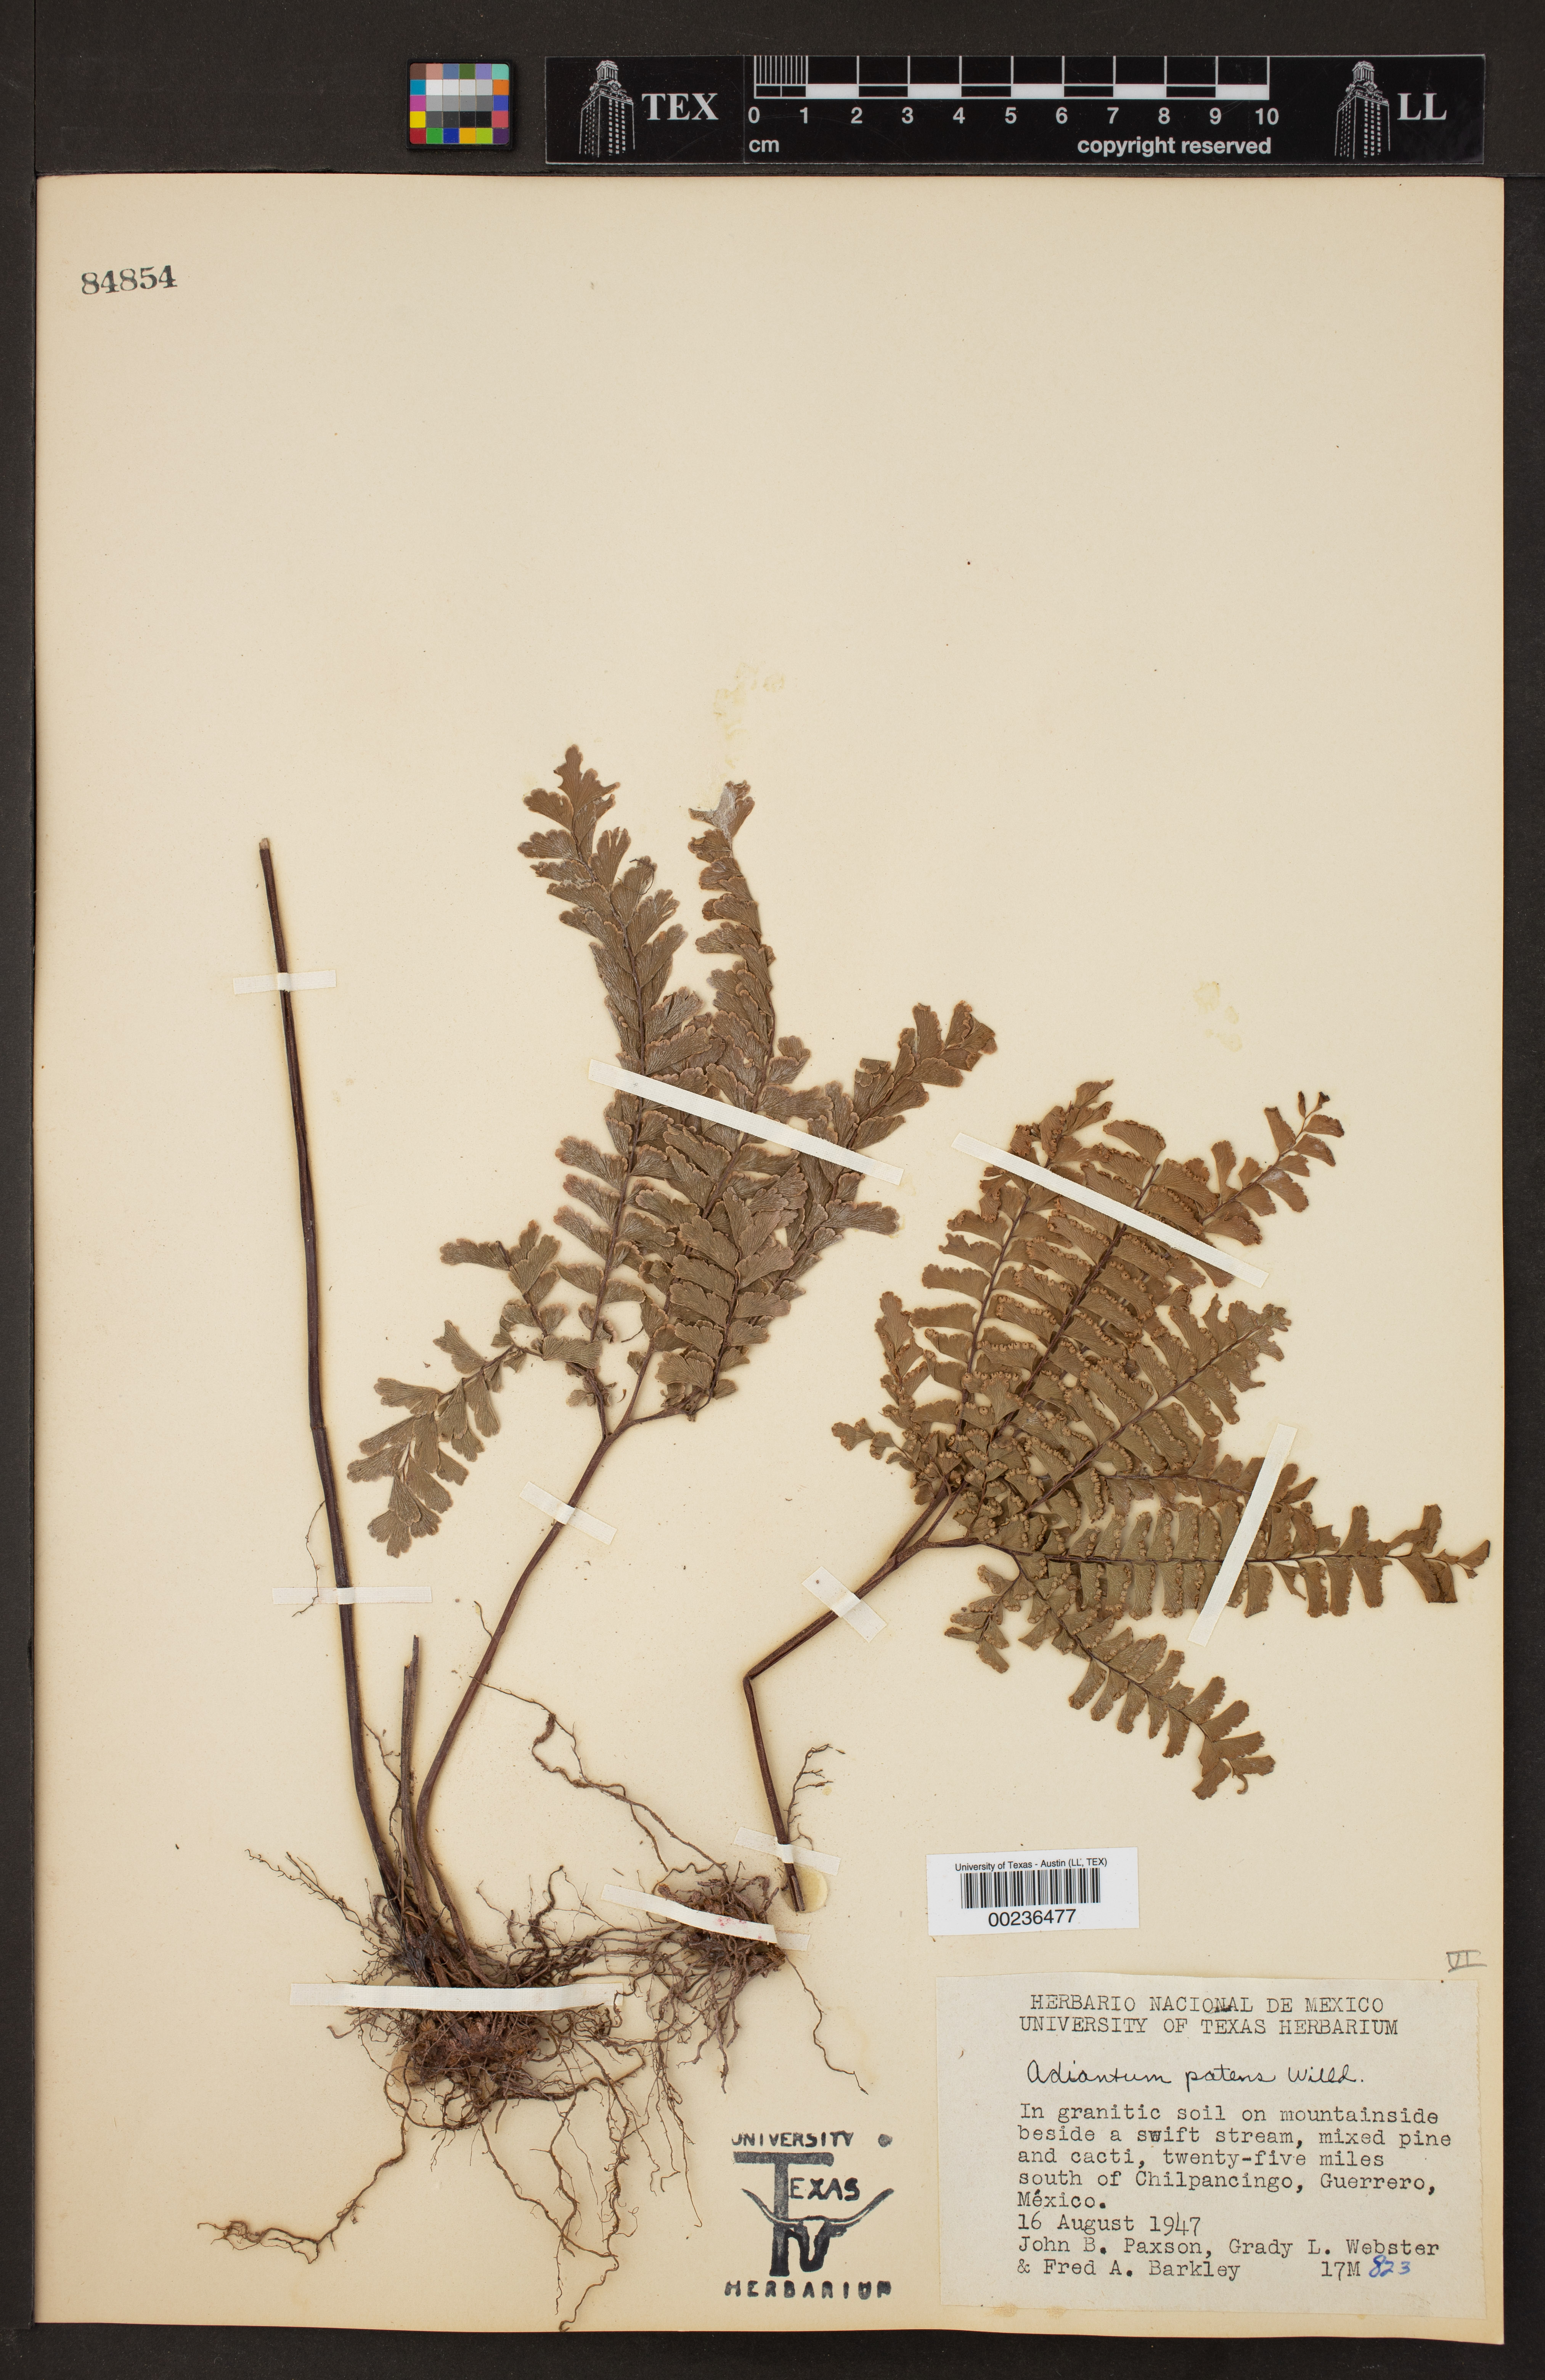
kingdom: Plantae
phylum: Tracheophyta
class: Polypodiopsida
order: Polypodiales
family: Pteridaceae
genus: Adiantum
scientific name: Adiantum patens
